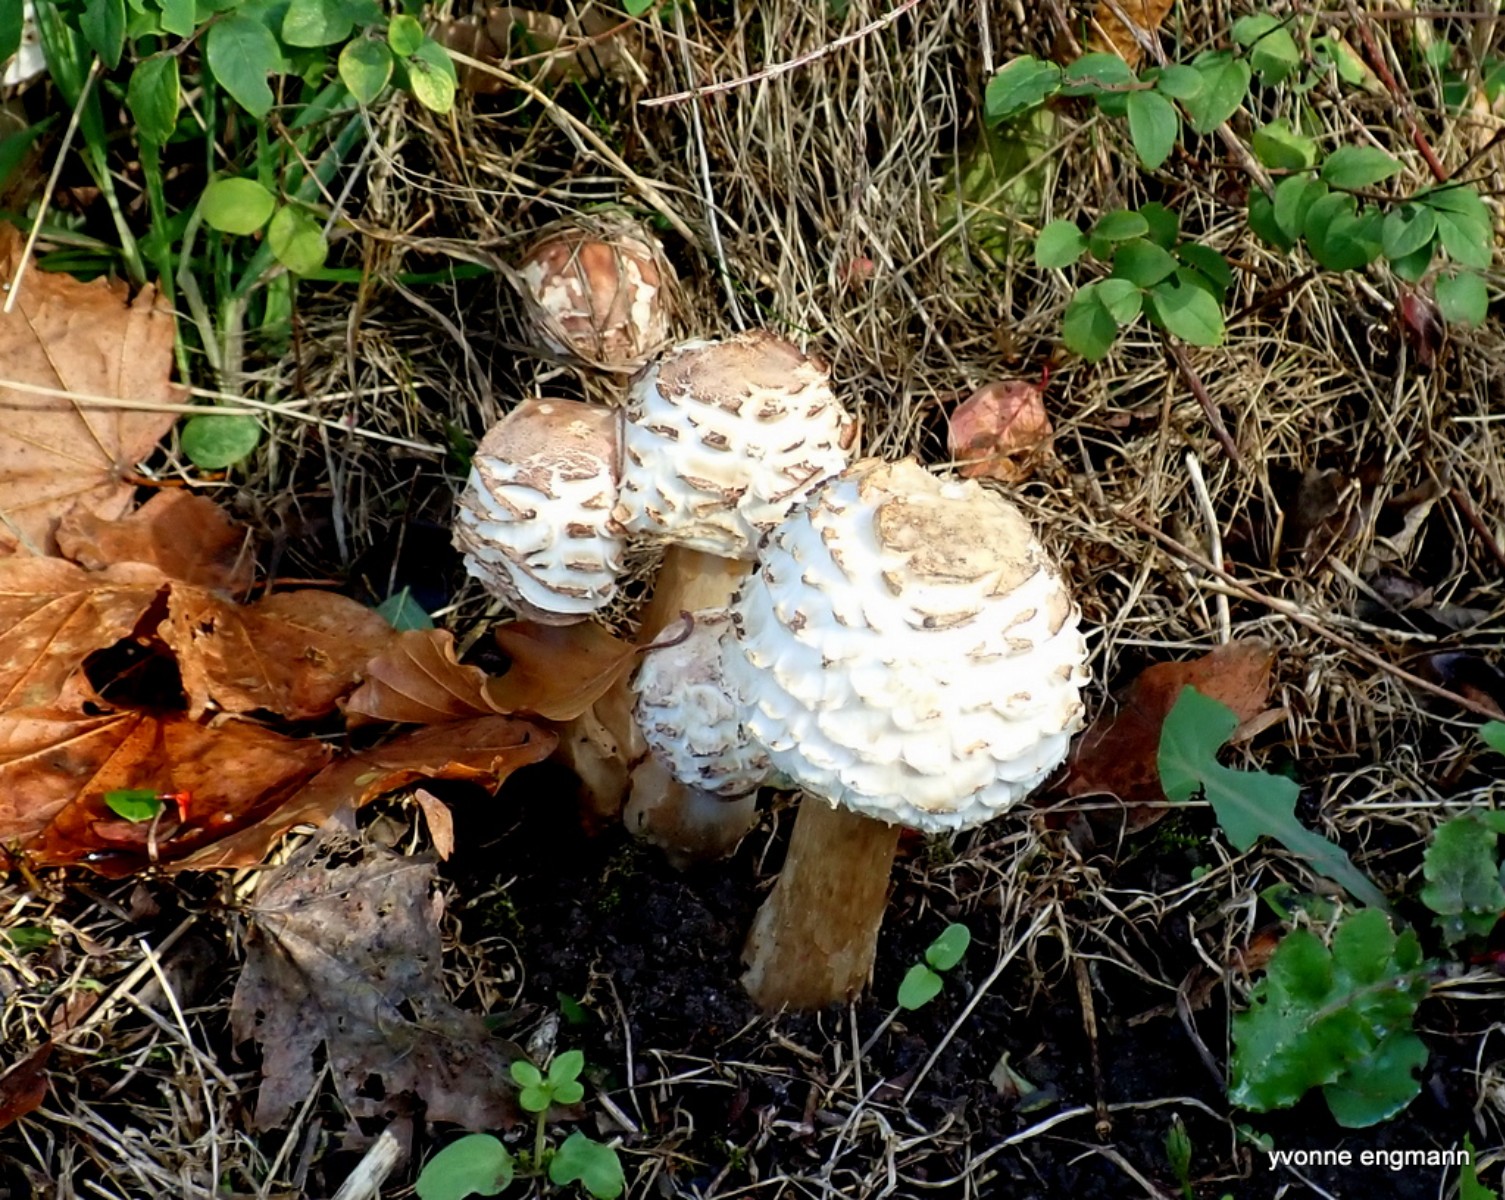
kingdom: Fungi
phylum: Basidiomycota
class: Agaricomycetes
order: Agaricales
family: Agaricaceae
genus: Chlorophyllum
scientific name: Chlorophyllum rhacodes
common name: ægte rabarberhat
